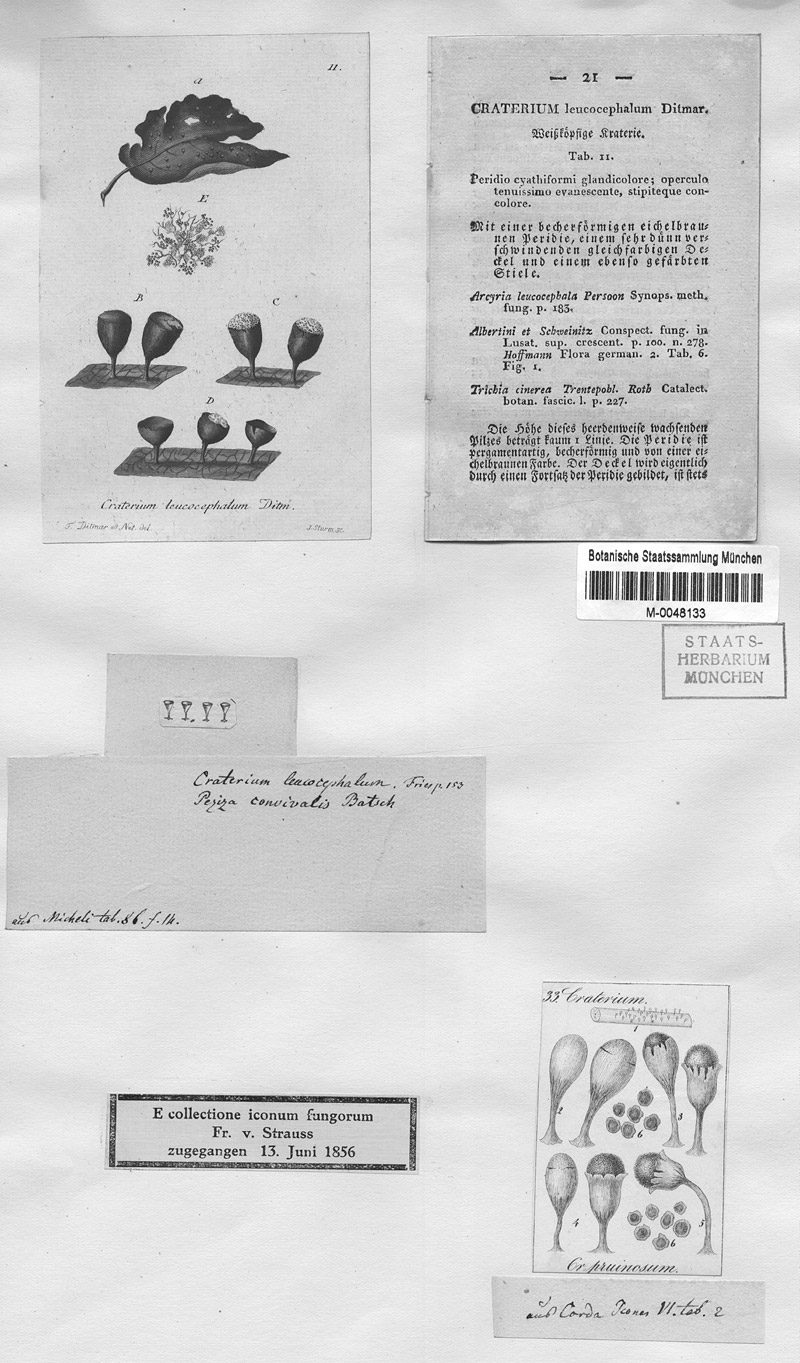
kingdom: Protozoa
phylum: Mycetozoa
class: Myxomycetes
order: Physarales
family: Physaraceae
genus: Craterium
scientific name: Craterium leucocephalum
